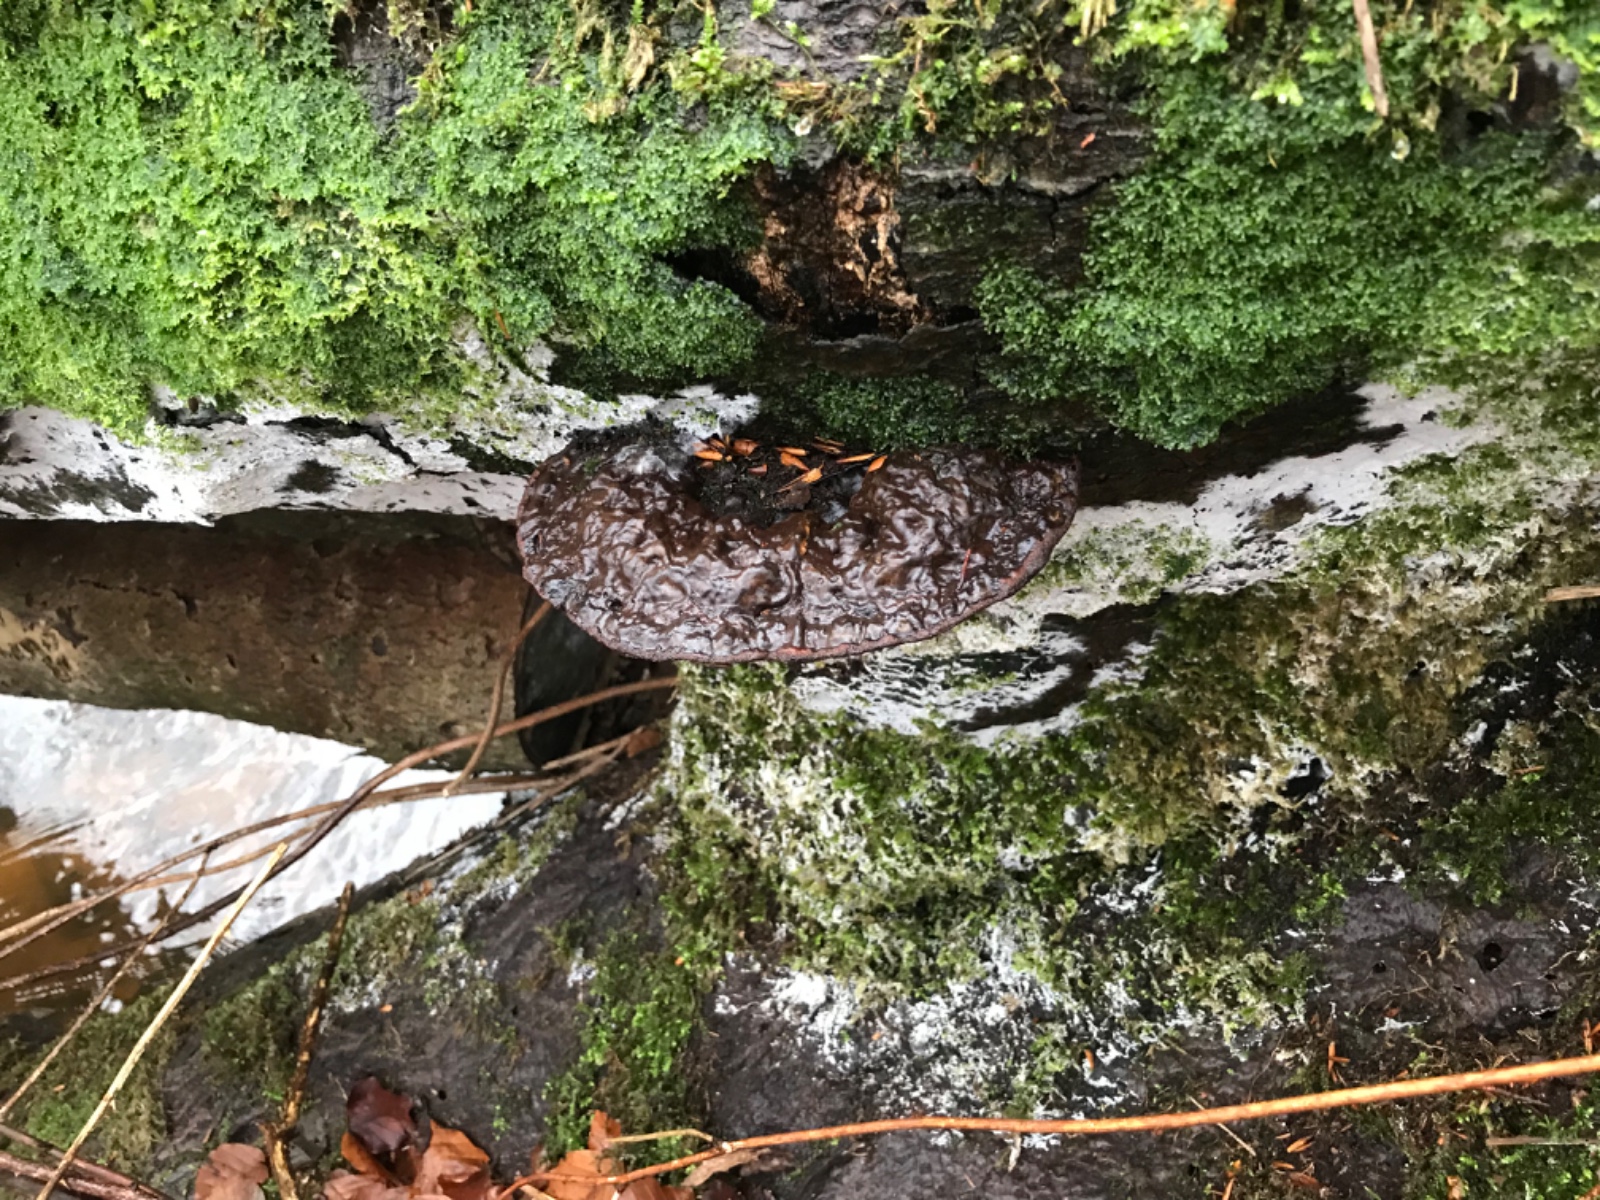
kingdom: Fungi
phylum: Basidiomycota
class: Agaricomycetes
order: Polyporales
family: Polyporaceae
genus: Ganoderma
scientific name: Ganoderma applanatum
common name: flad lakporesvamp
